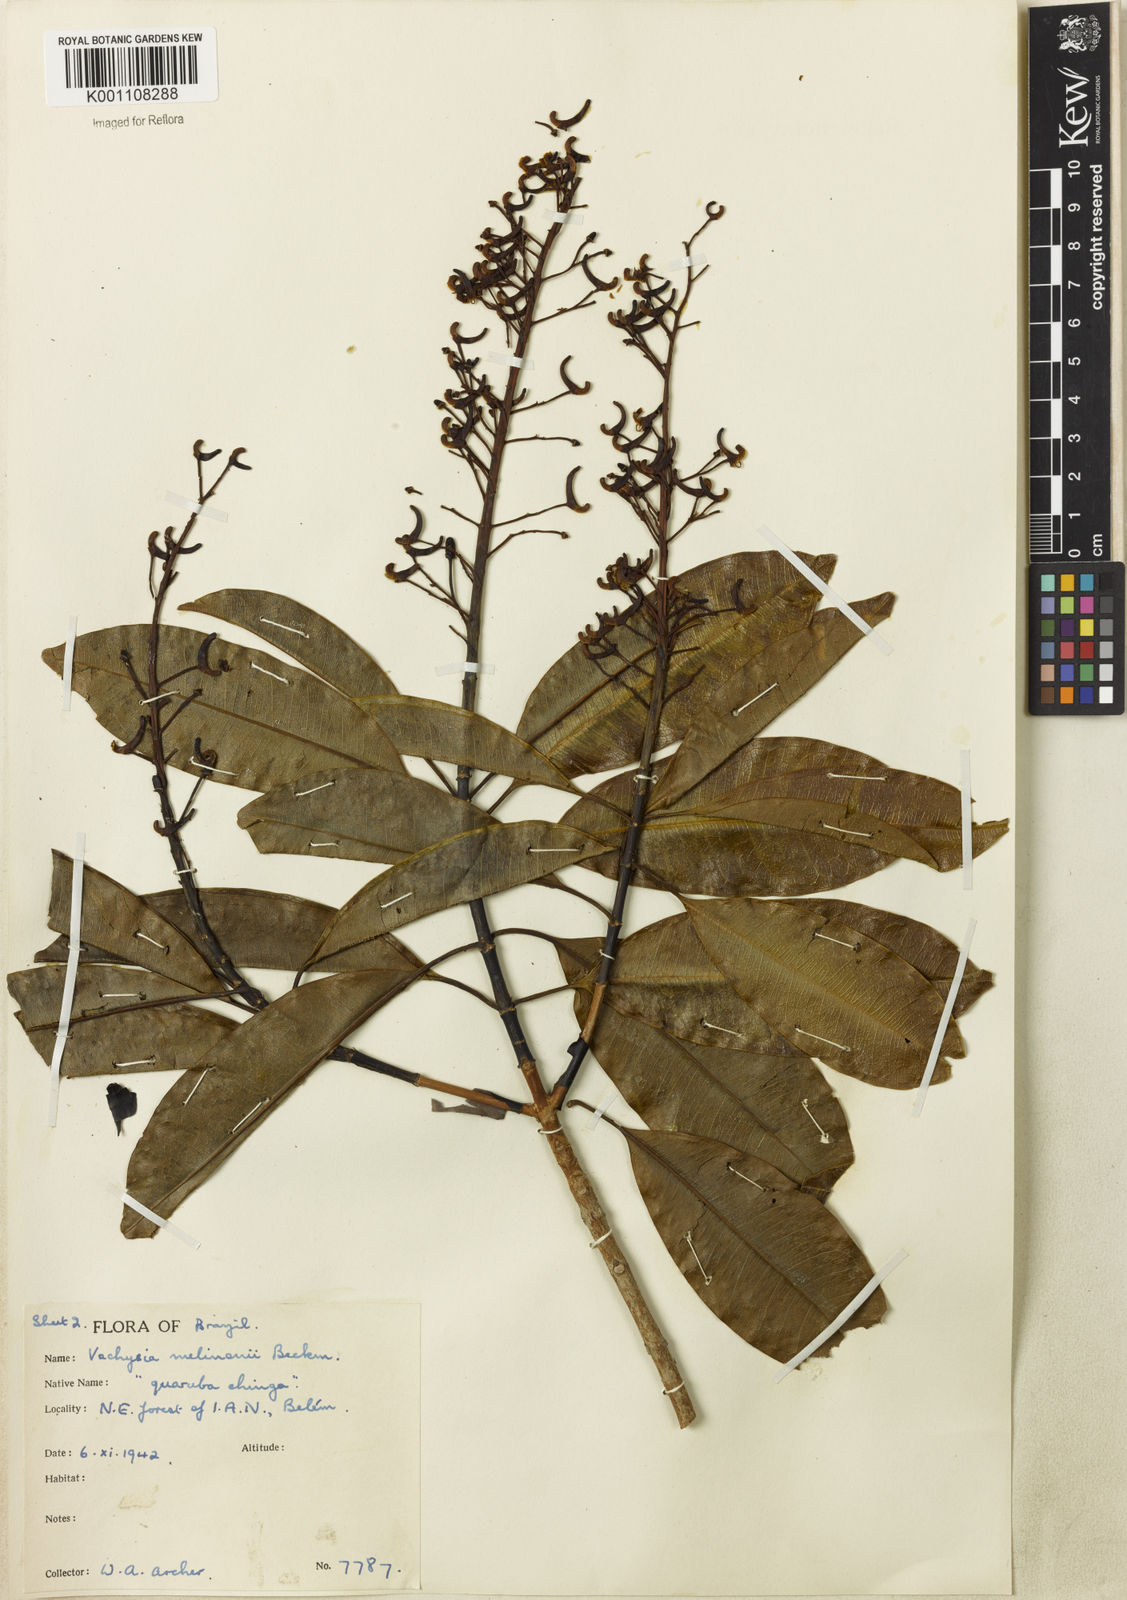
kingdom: Plantae
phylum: Tracheophyta
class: Magnoliopsida
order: Myrtales
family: Vochysiaceae
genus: Vochysia
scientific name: Vochysia
